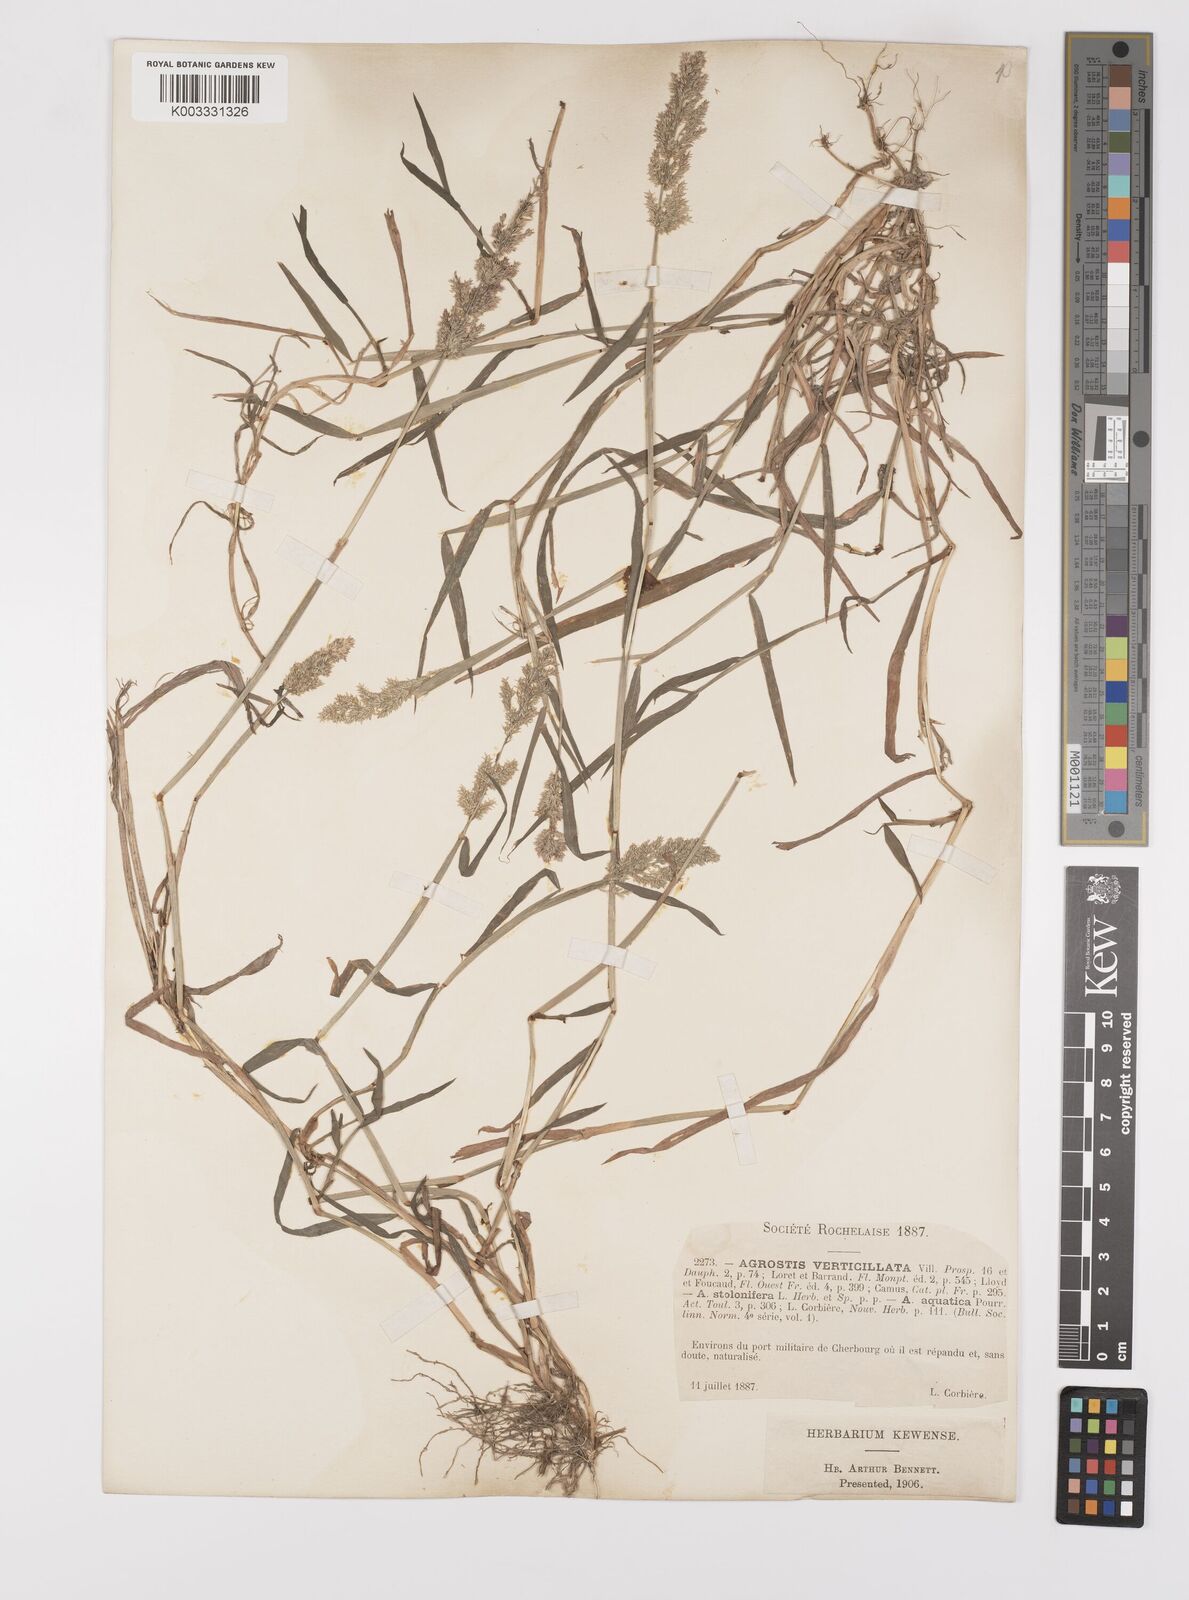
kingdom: Plantae
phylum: Tracheophyta
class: Liliopsida
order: Poales
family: Poaceae
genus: Polypogon
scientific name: Polypogon viridis
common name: Water bent
